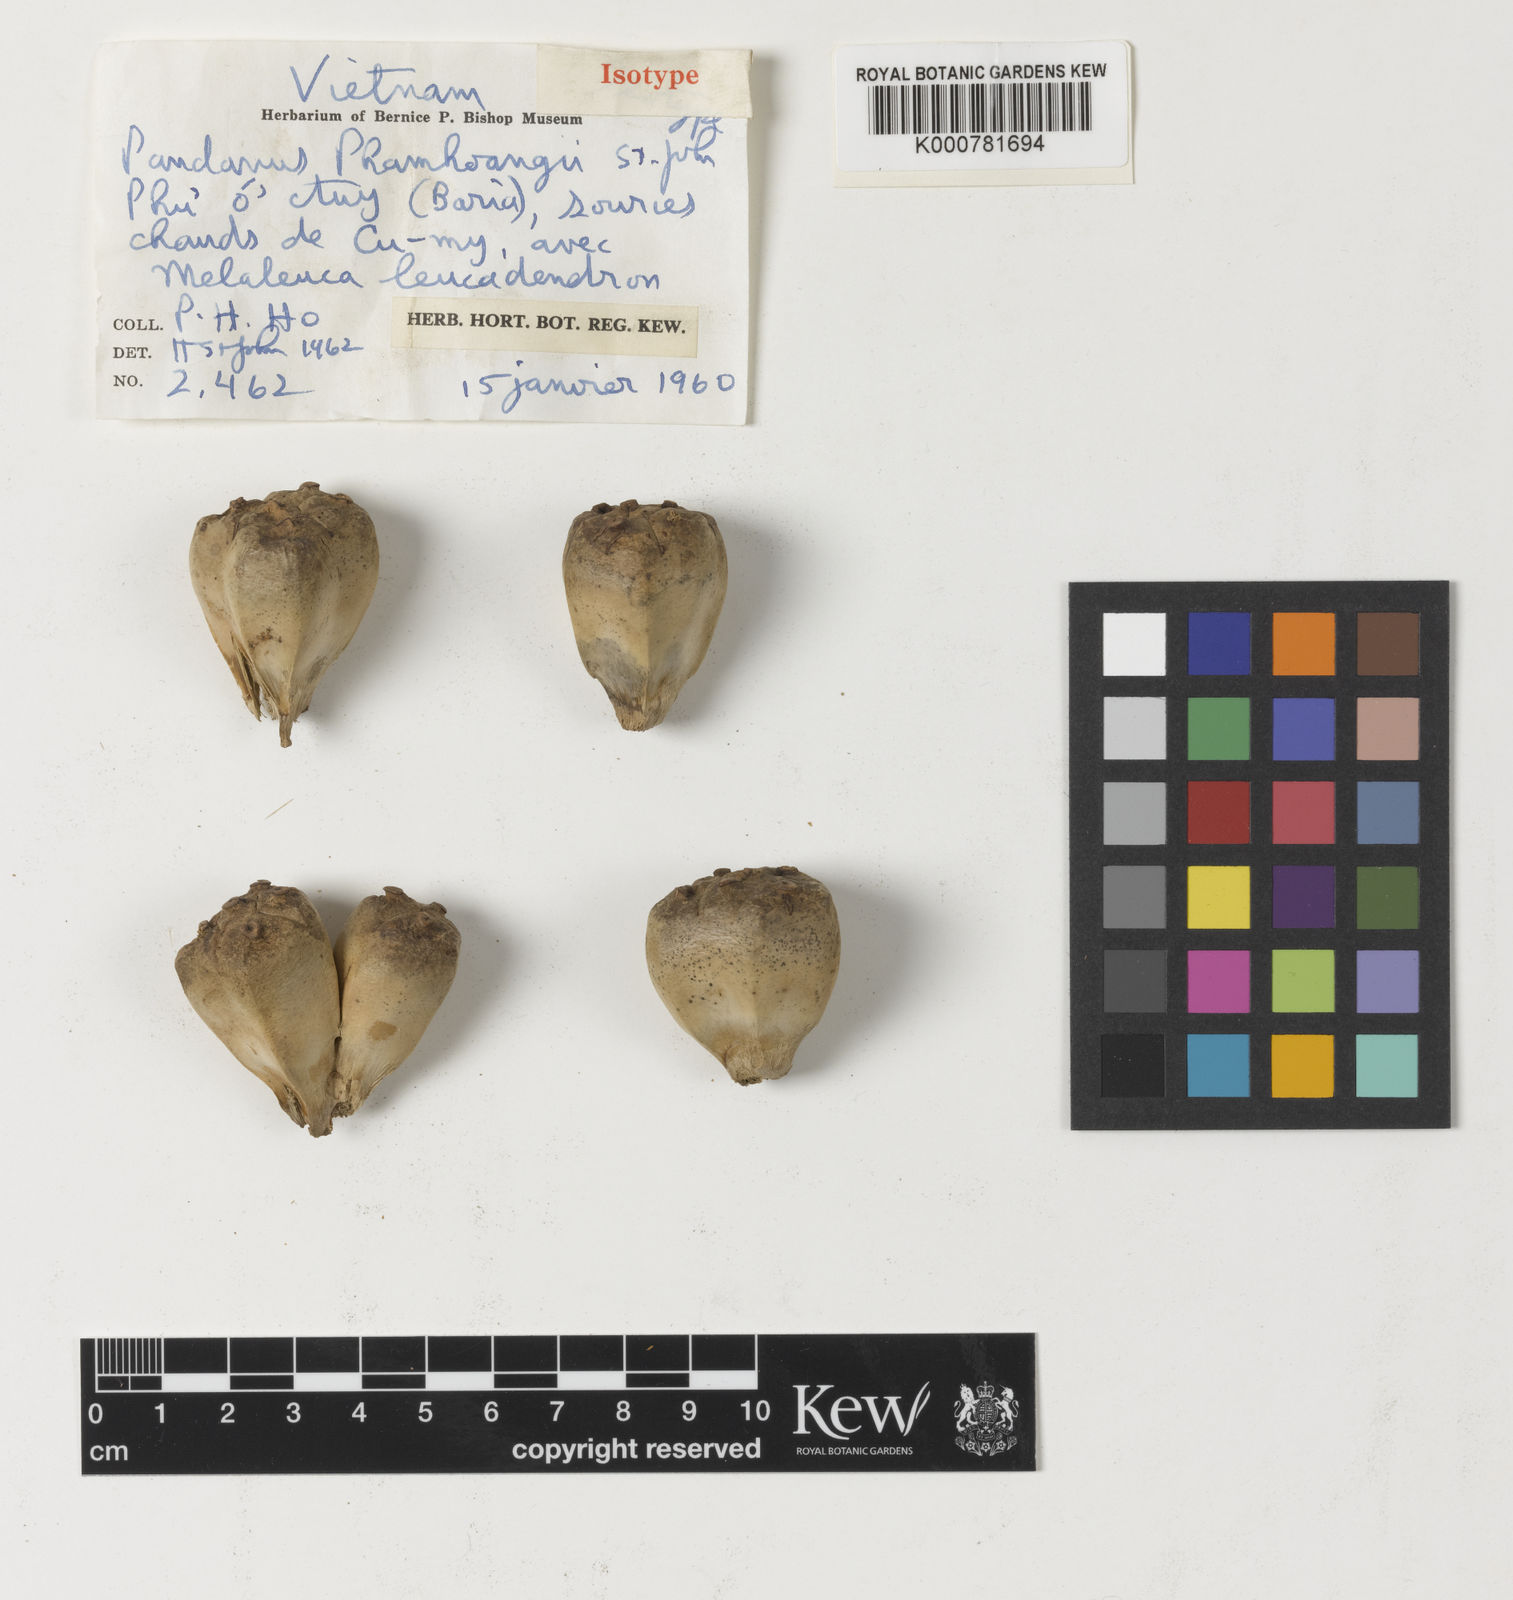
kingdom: Plantae
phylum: Tracheophyta
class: Liliopsida
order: Pandanales
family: Pandanaceae
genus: Pandanus
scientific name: Pandanus odorifer
